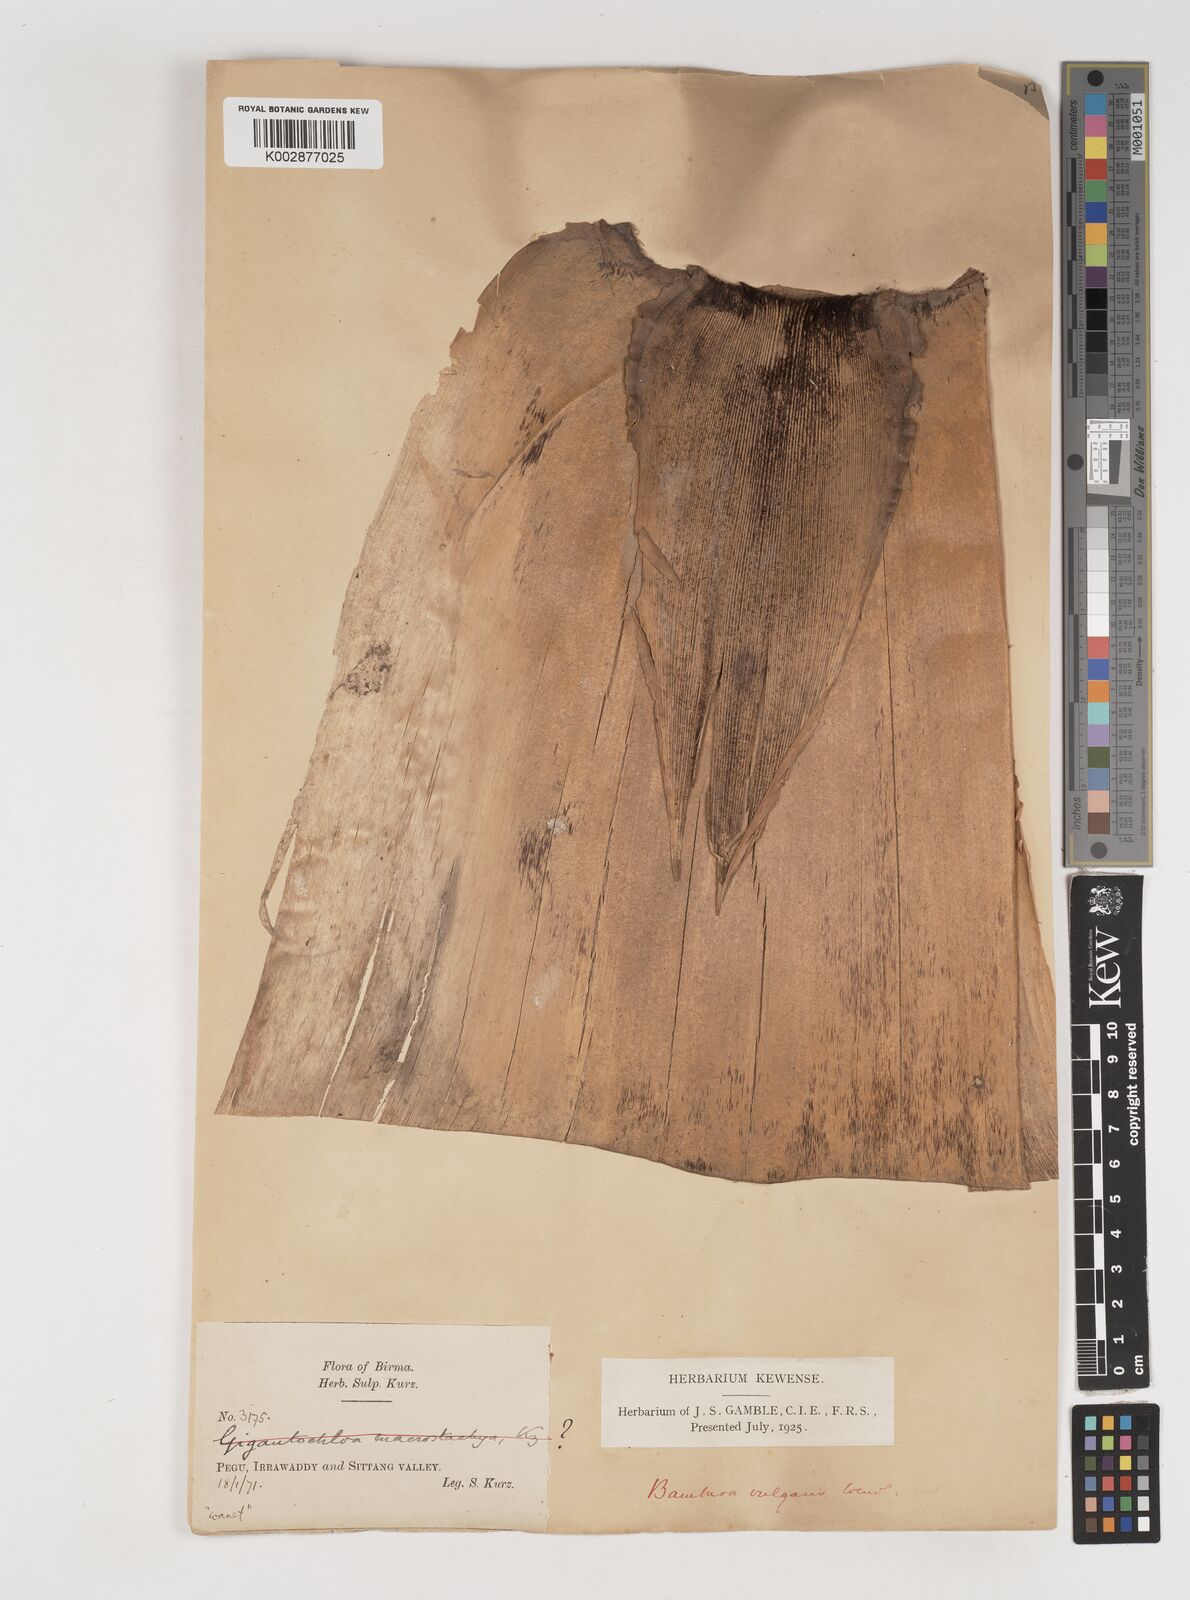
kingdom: Plantae
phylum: Tracheophyta
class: Liliopsida
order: Poales
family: Poaceae
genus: Bambusa
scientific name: Bambusa vulgaris
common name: Common bamboo
